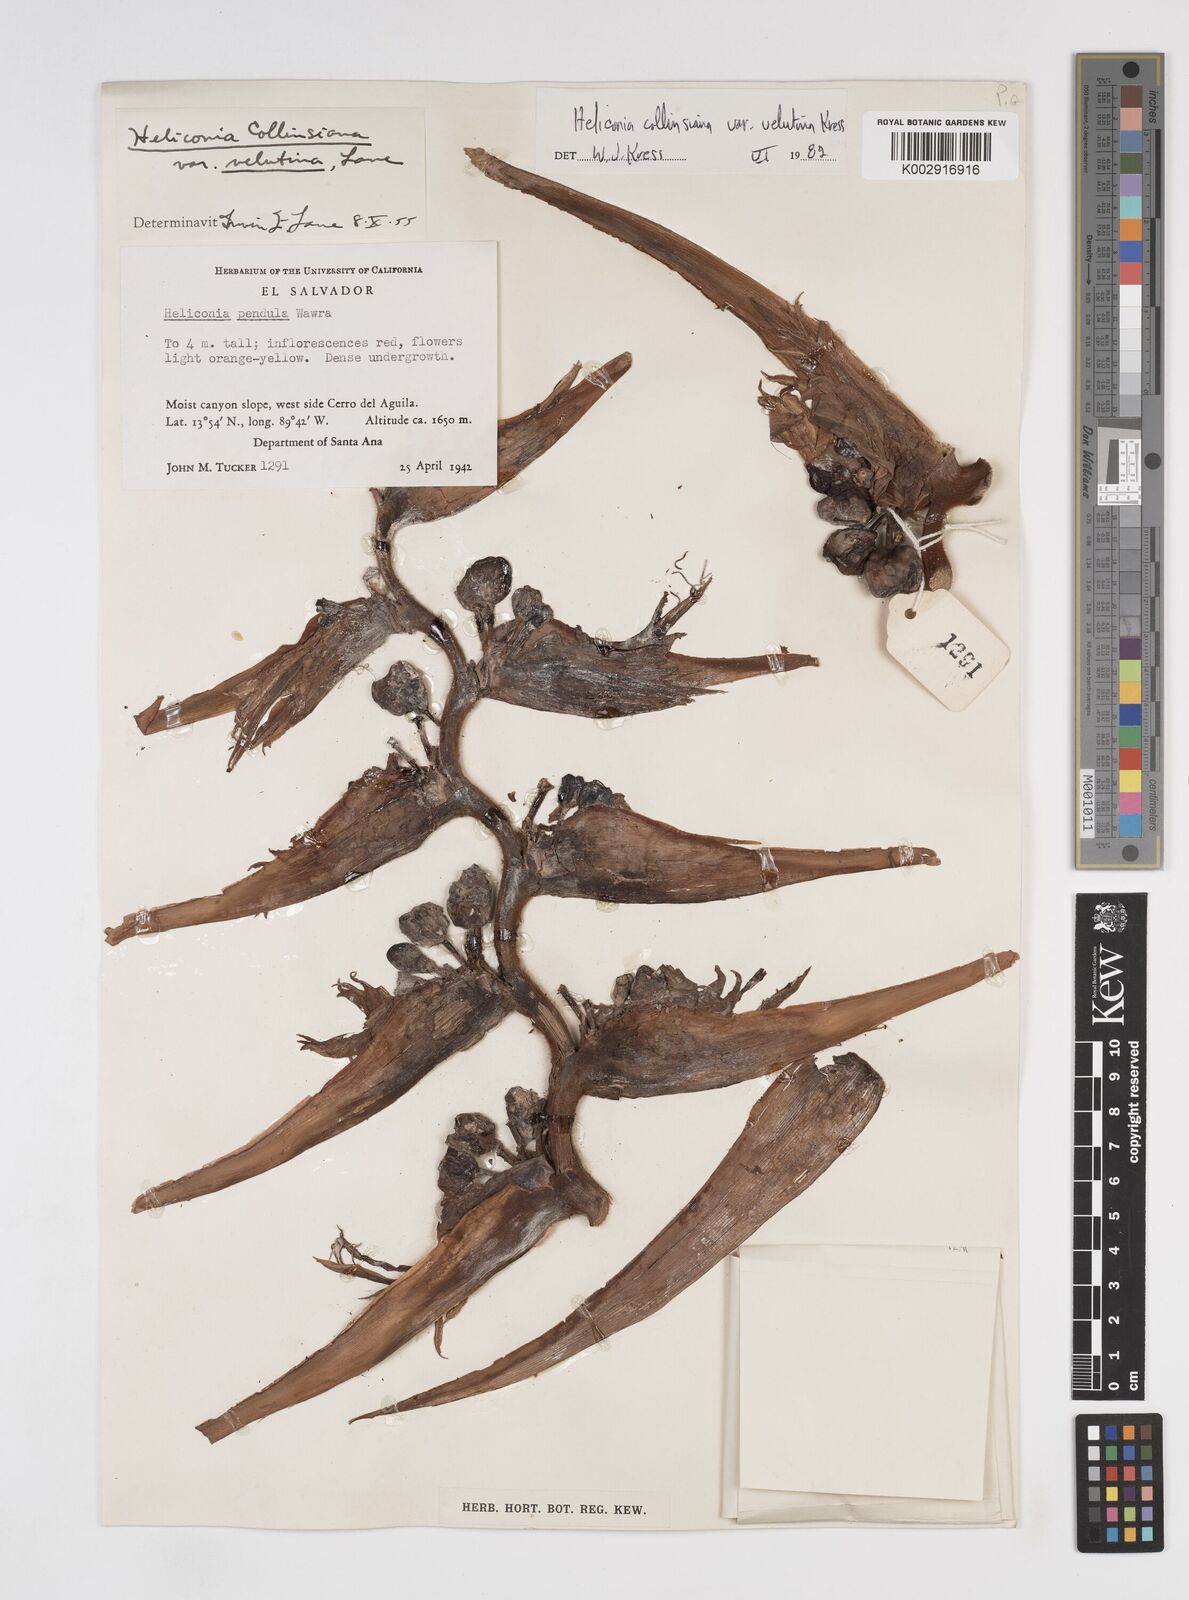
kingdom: Plantae
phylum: Tracheophyta
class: Liliopsida
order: Zingiberales
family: Heliconiaceae
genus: Heliconia
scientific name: Heliconia collinsiana
